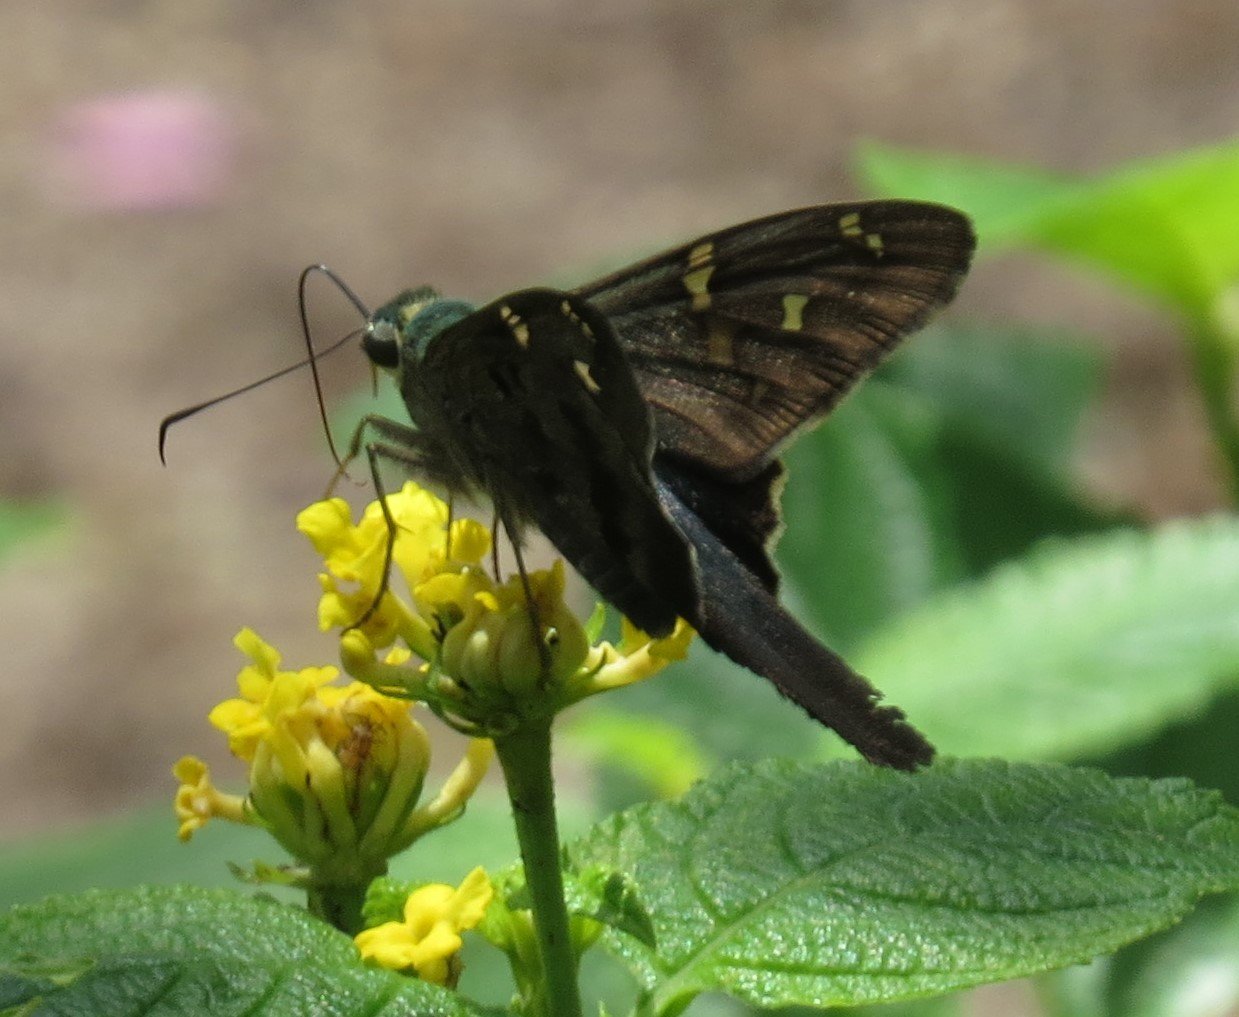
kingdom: Animalia
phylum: Arthropoda
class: Insecta
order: Lepidoptera
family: Hesperiidae
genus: Urbanus
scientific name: Urbanus proteus
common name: Long-tailed Skipper
